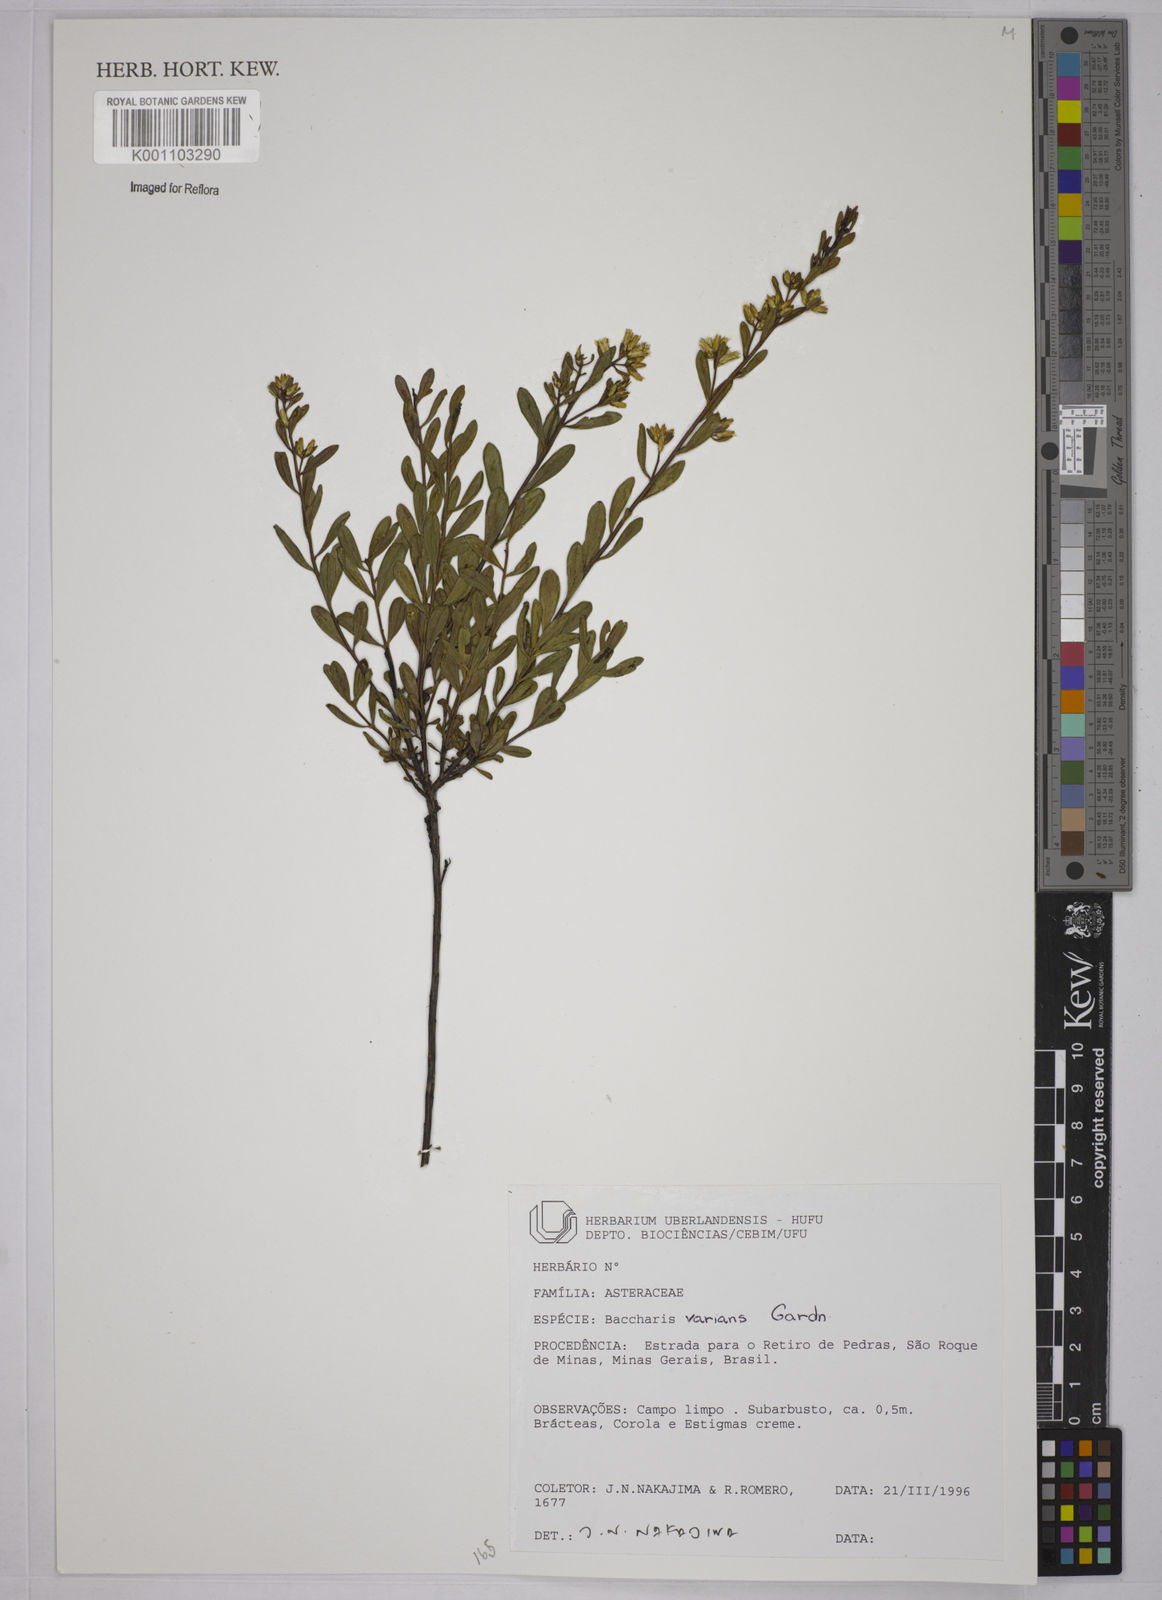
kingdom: Plantae
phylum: Tracheophyta
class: Magnoliopsida
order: Asterales
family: Asteraceae
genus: Baccharis
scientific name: Baccharis varians
